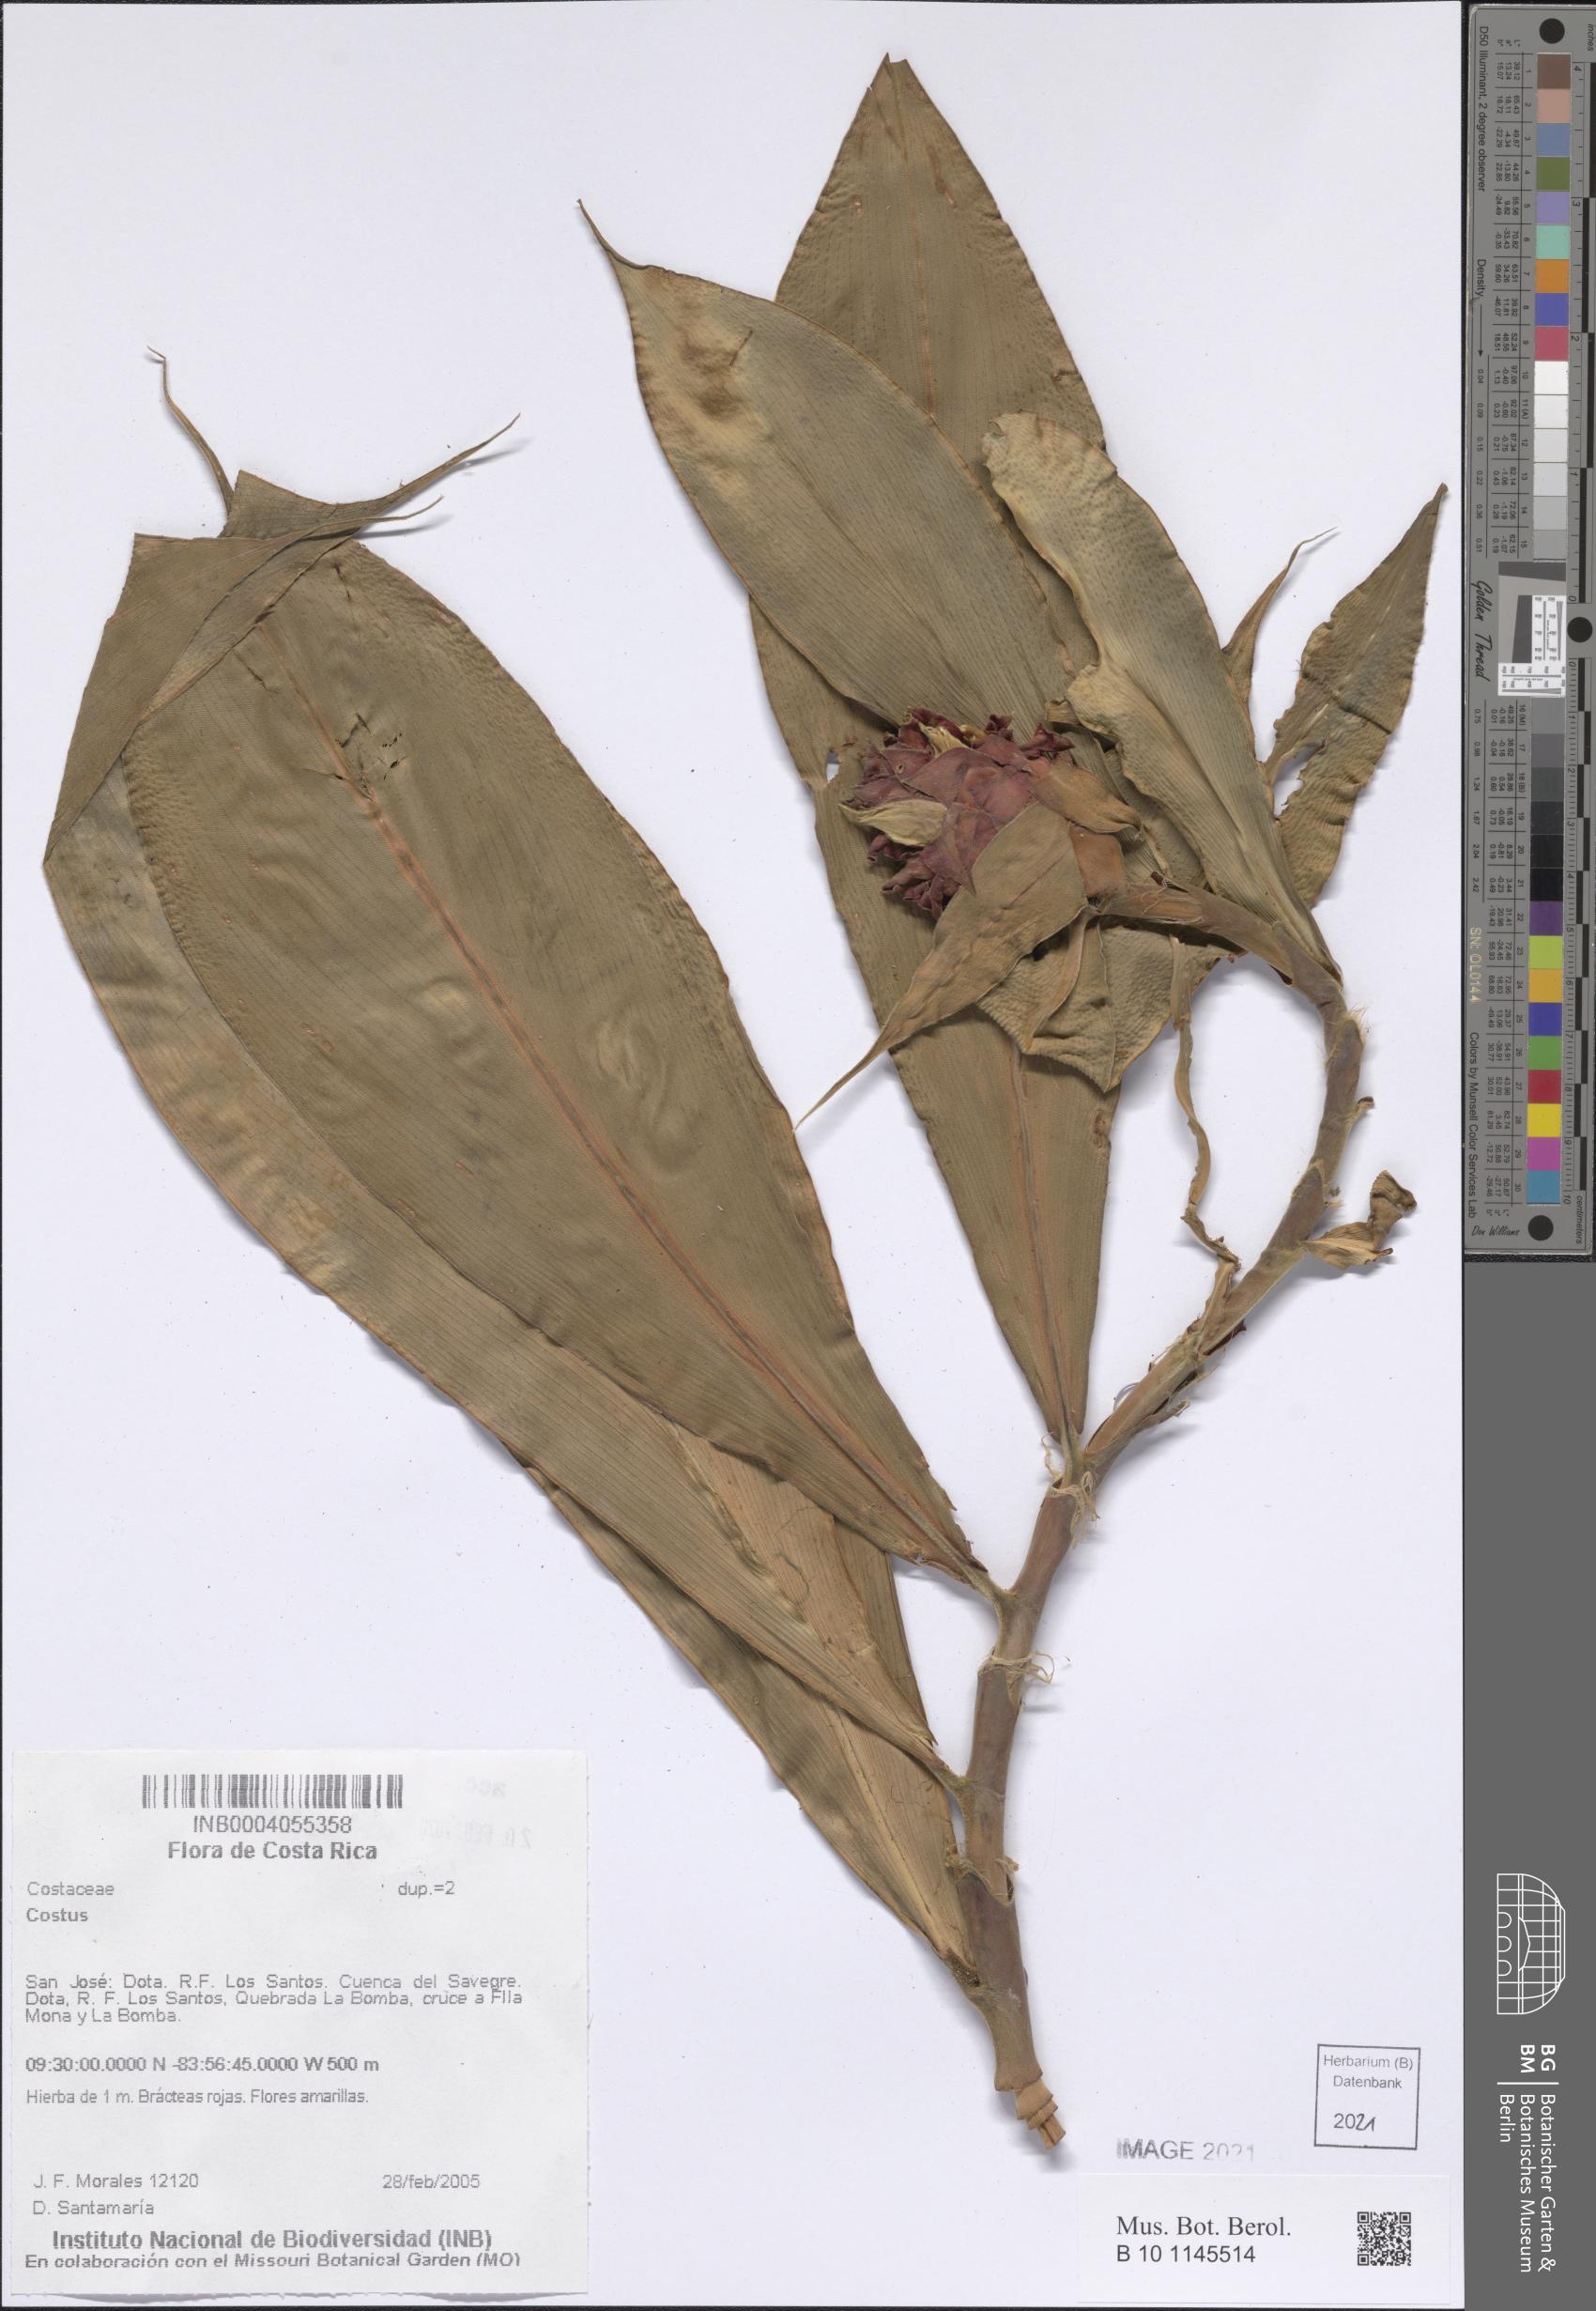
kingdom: Plantae
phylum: Tracheophyta
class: Liliopsida
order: Zingiberales
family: Costaceae
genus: Costus
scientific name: Costus
